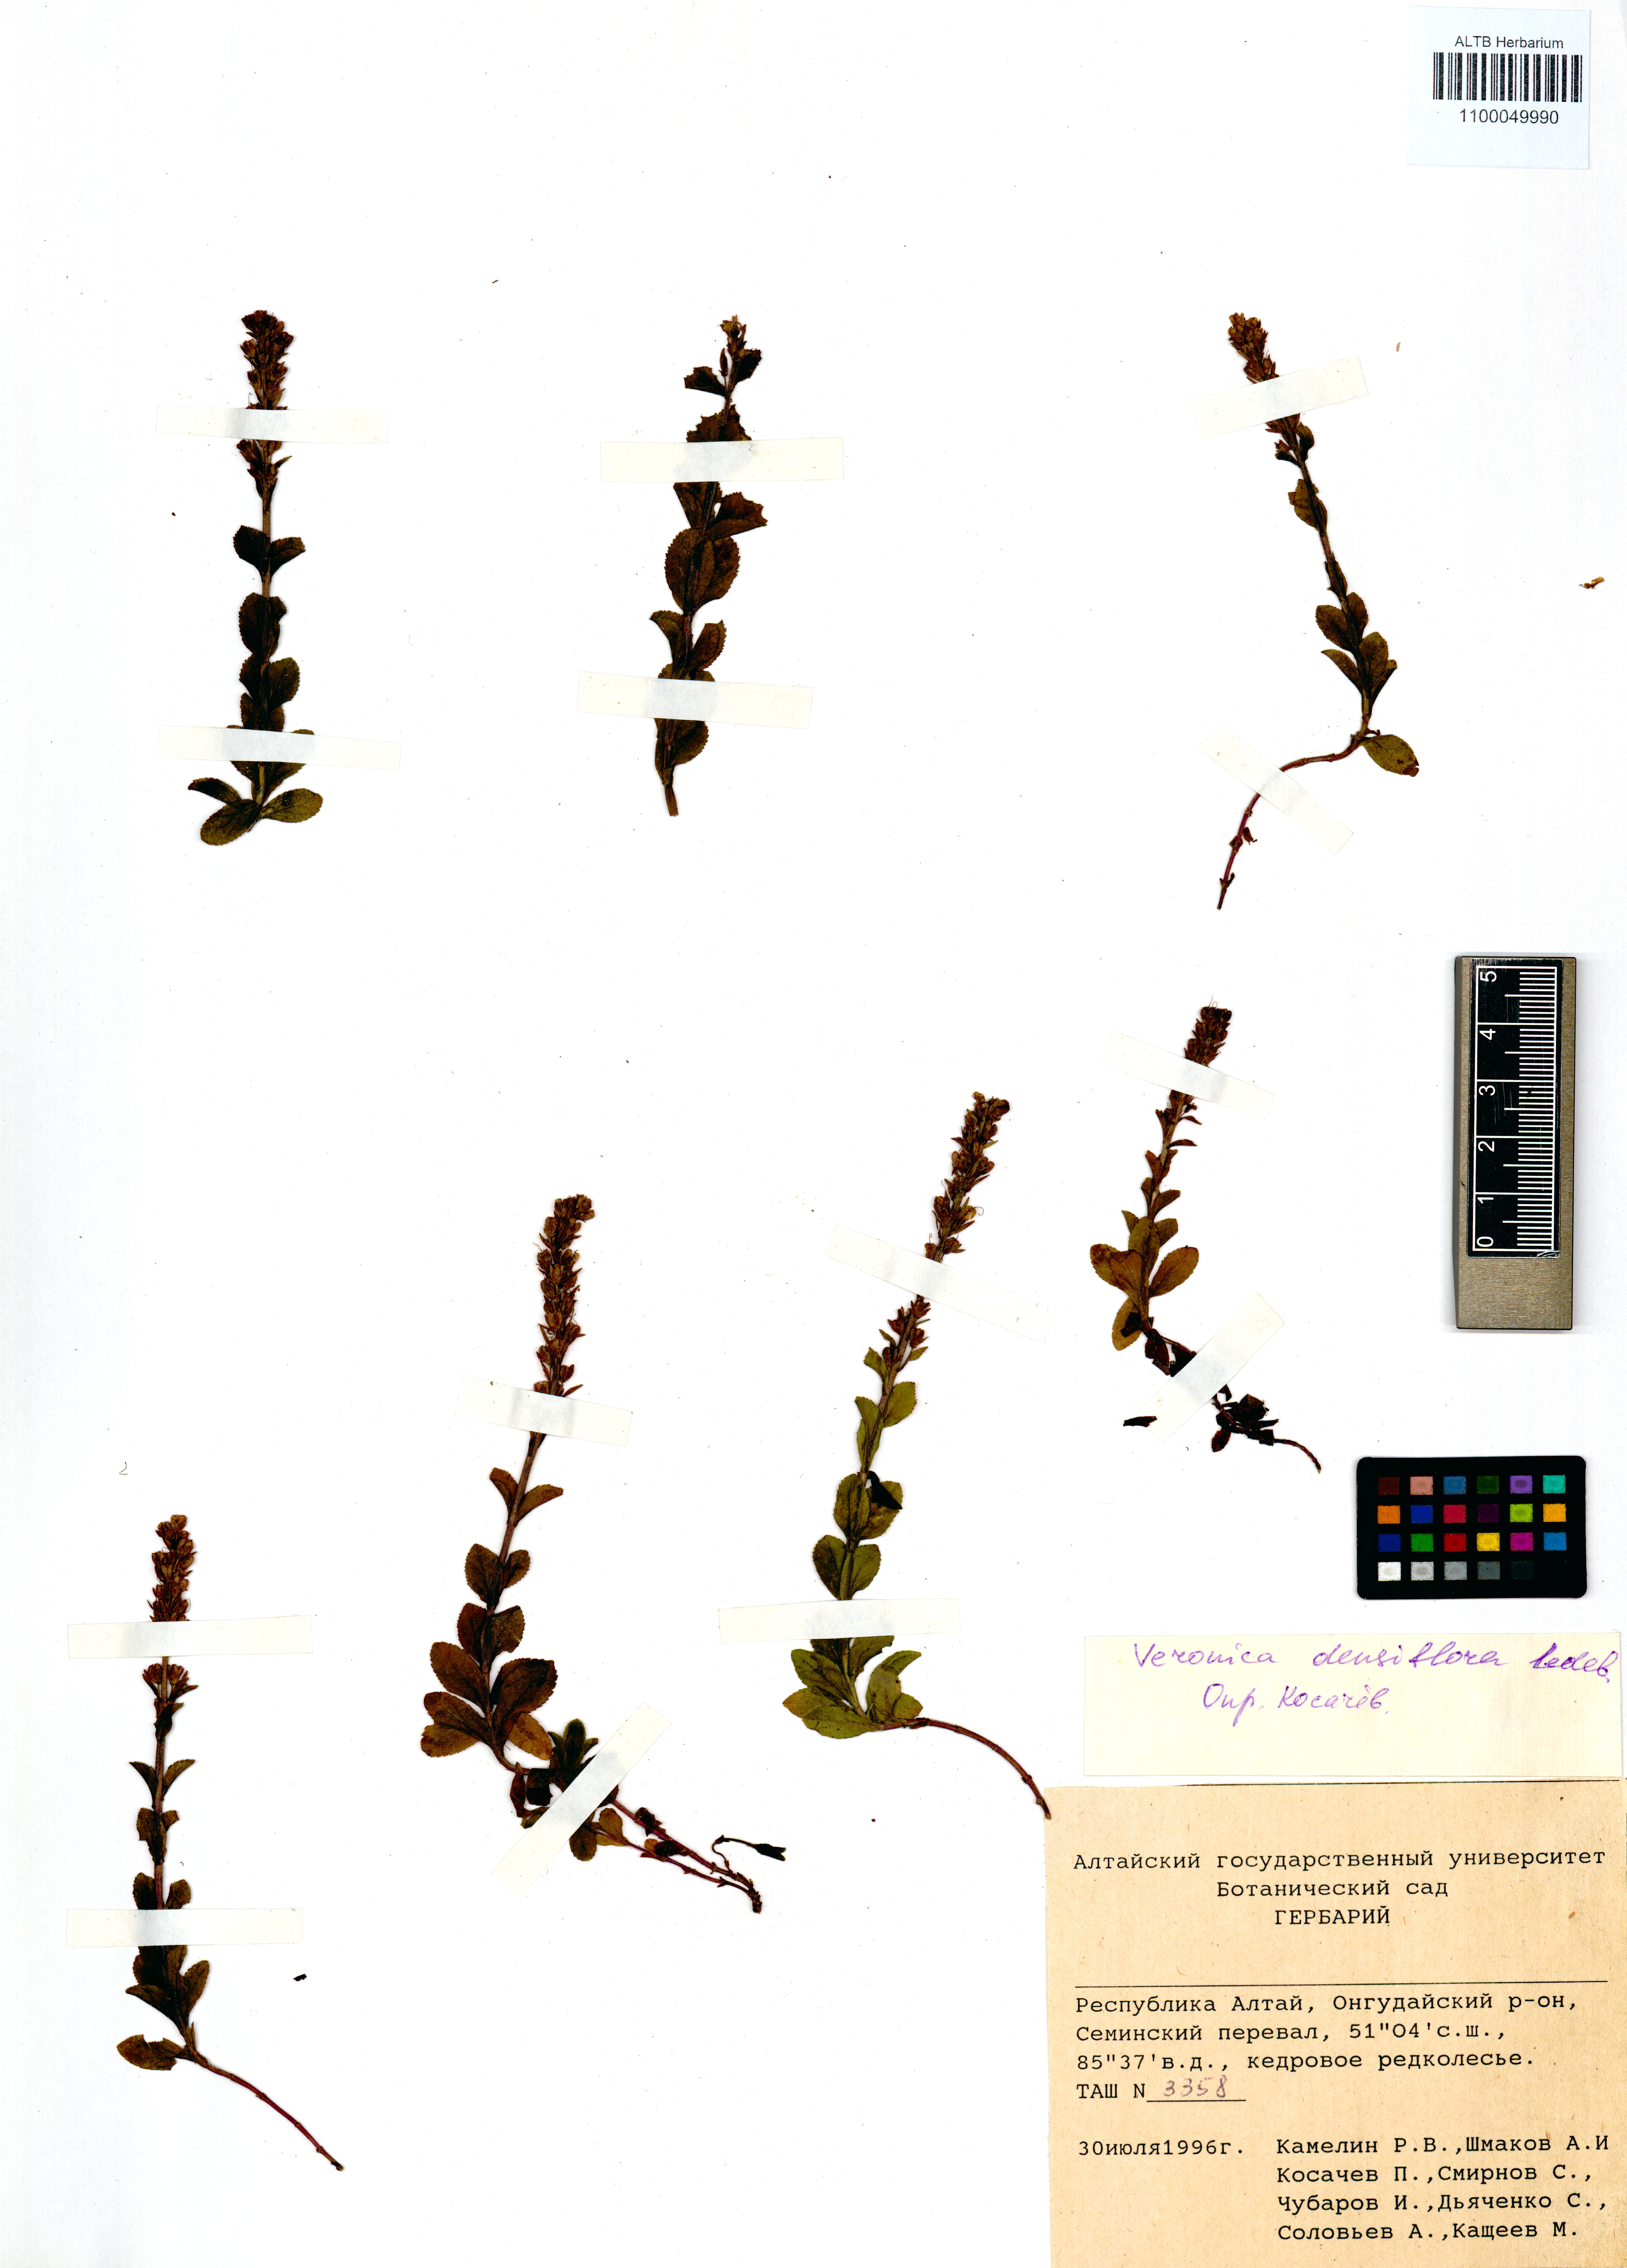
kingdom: Plantae
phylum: Tracheophyta
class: Magnoliopsida
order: Lamiales
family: Plantaginaceae
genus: Veronica
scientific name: Veronica densiflora
